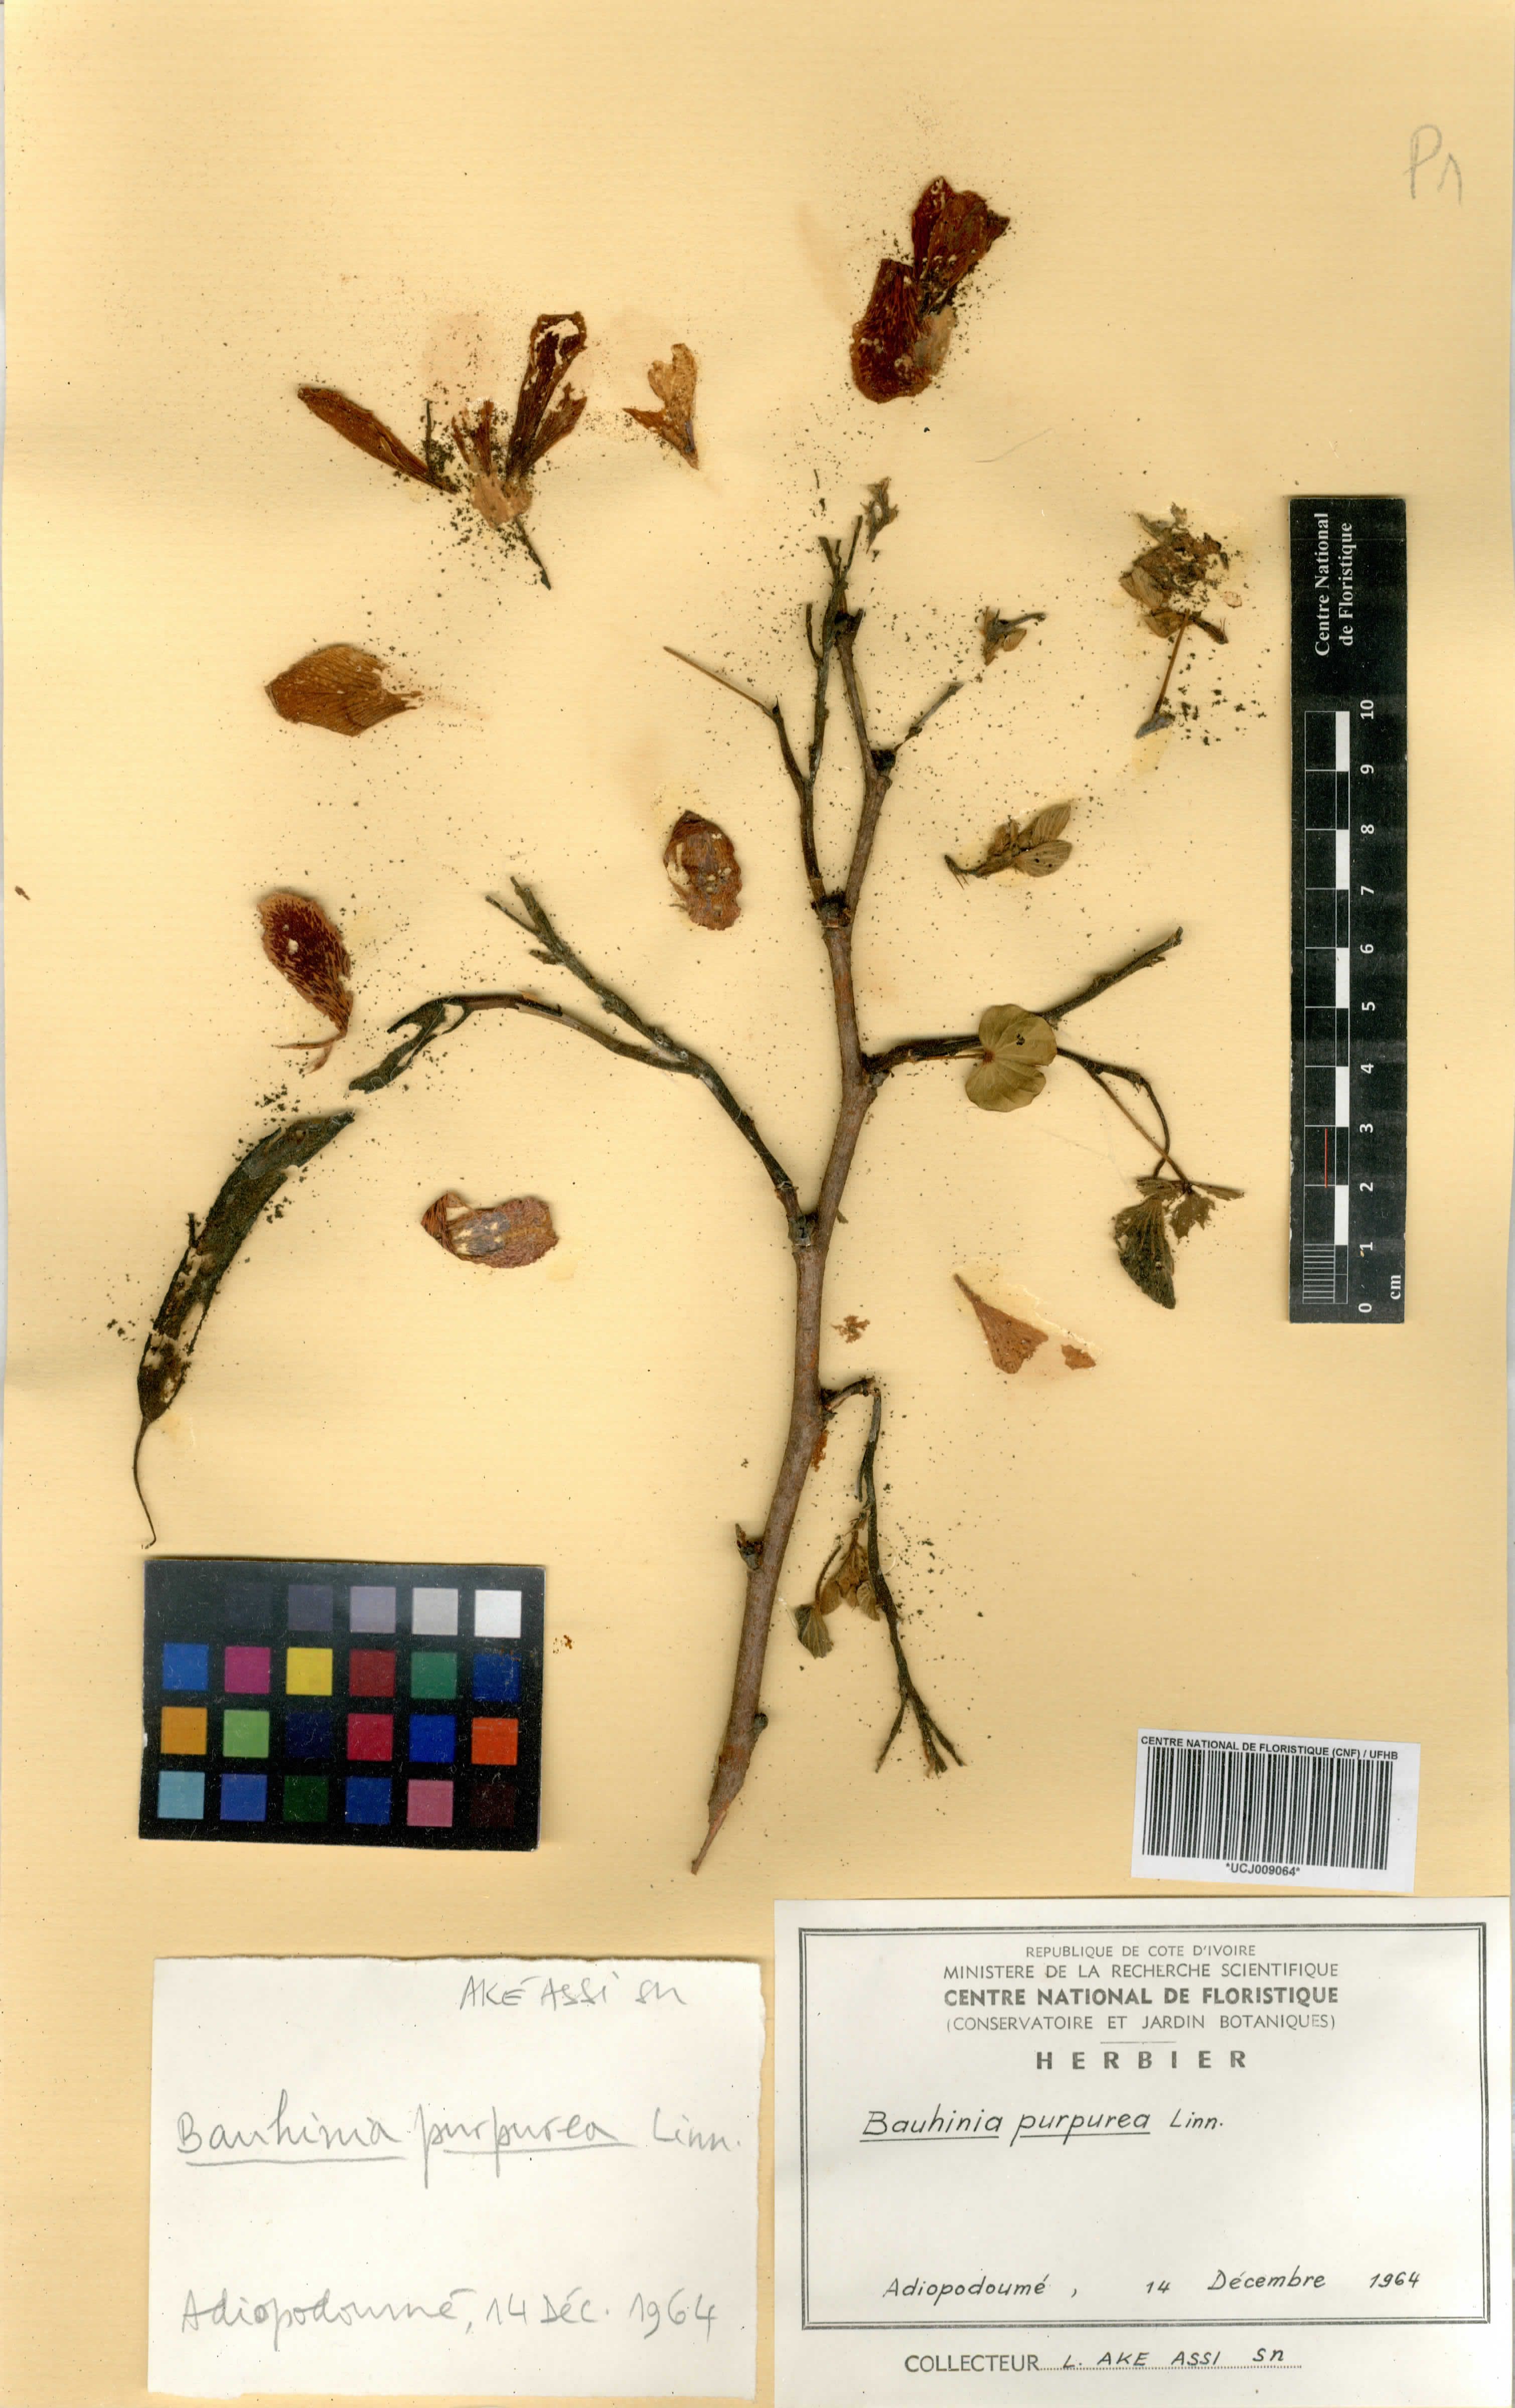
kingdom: Plantae
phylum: Tracheophyta
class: Magnoliopsida
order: Fabales
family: Fabaceae
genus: Bauhinia
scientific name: Bauhinia purpurea
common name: Butterfly-tree
